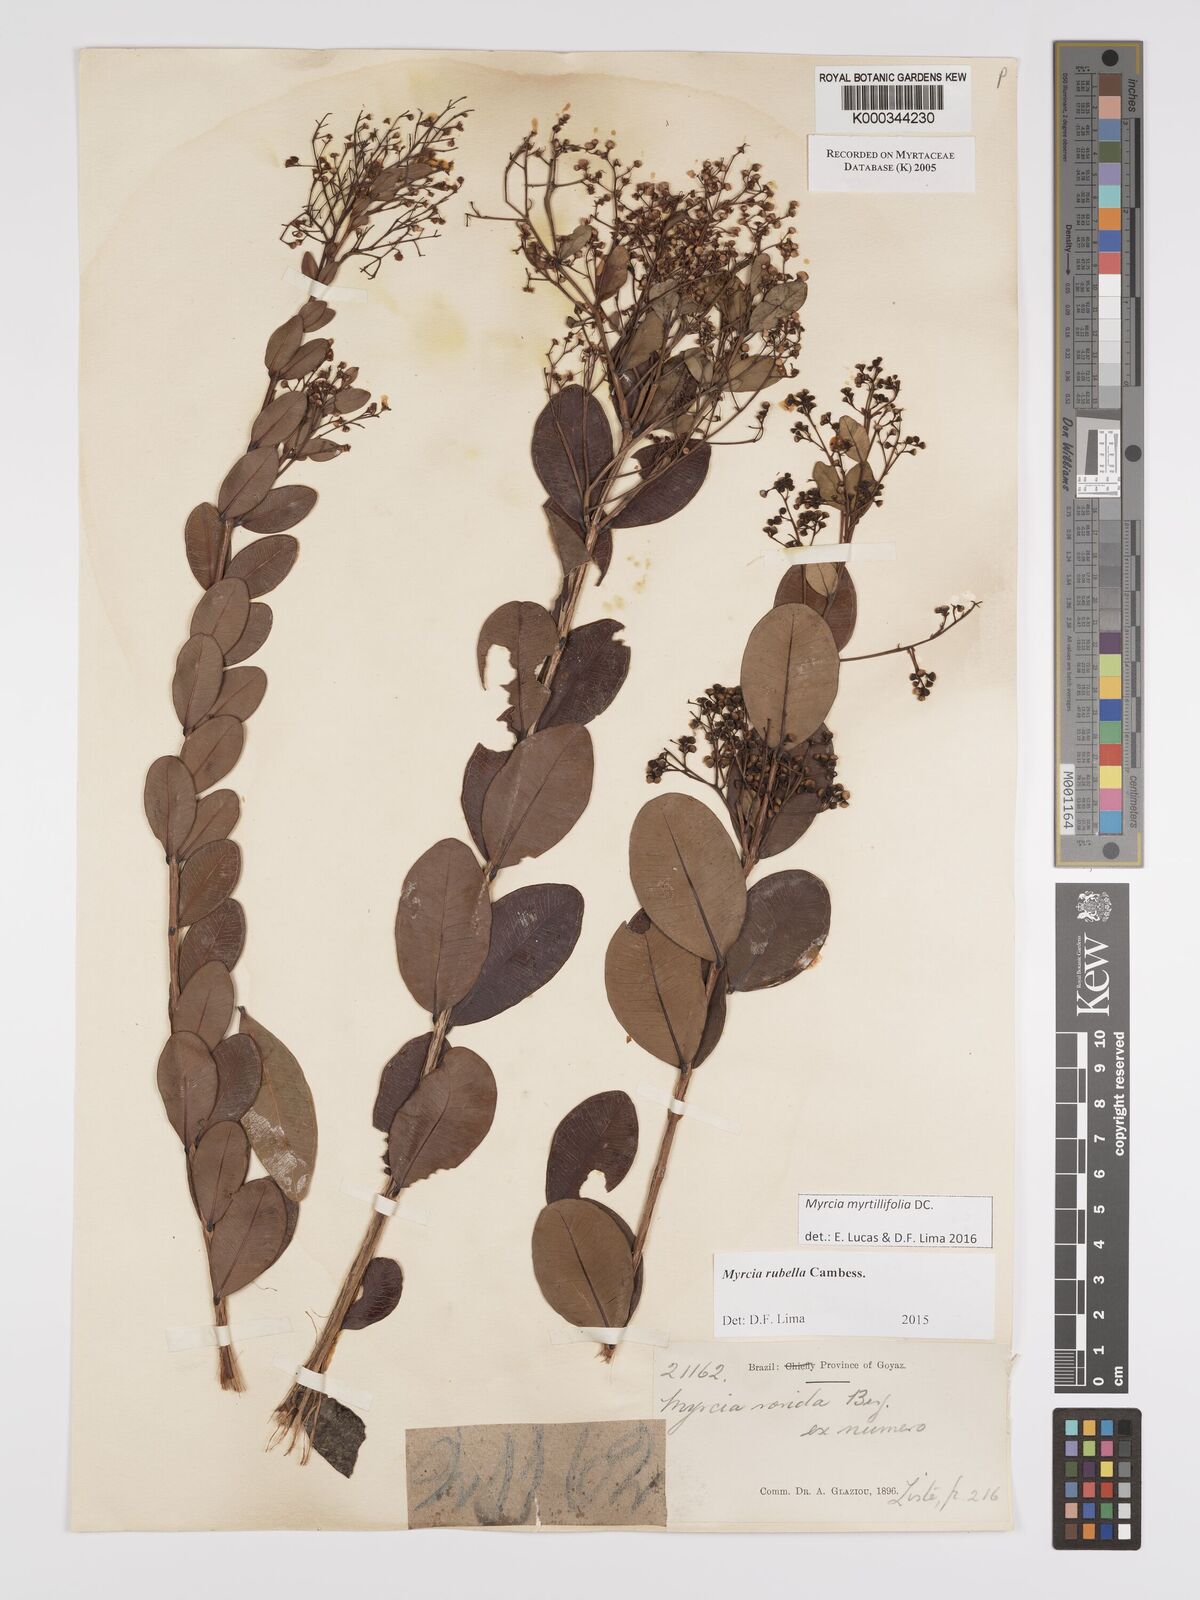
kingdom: Plantae
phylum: Tracheophyta
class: Magnoliopsida
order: Myrtales
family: Myrtaceae
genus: Myrcia
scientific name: Myrcia guianensis
